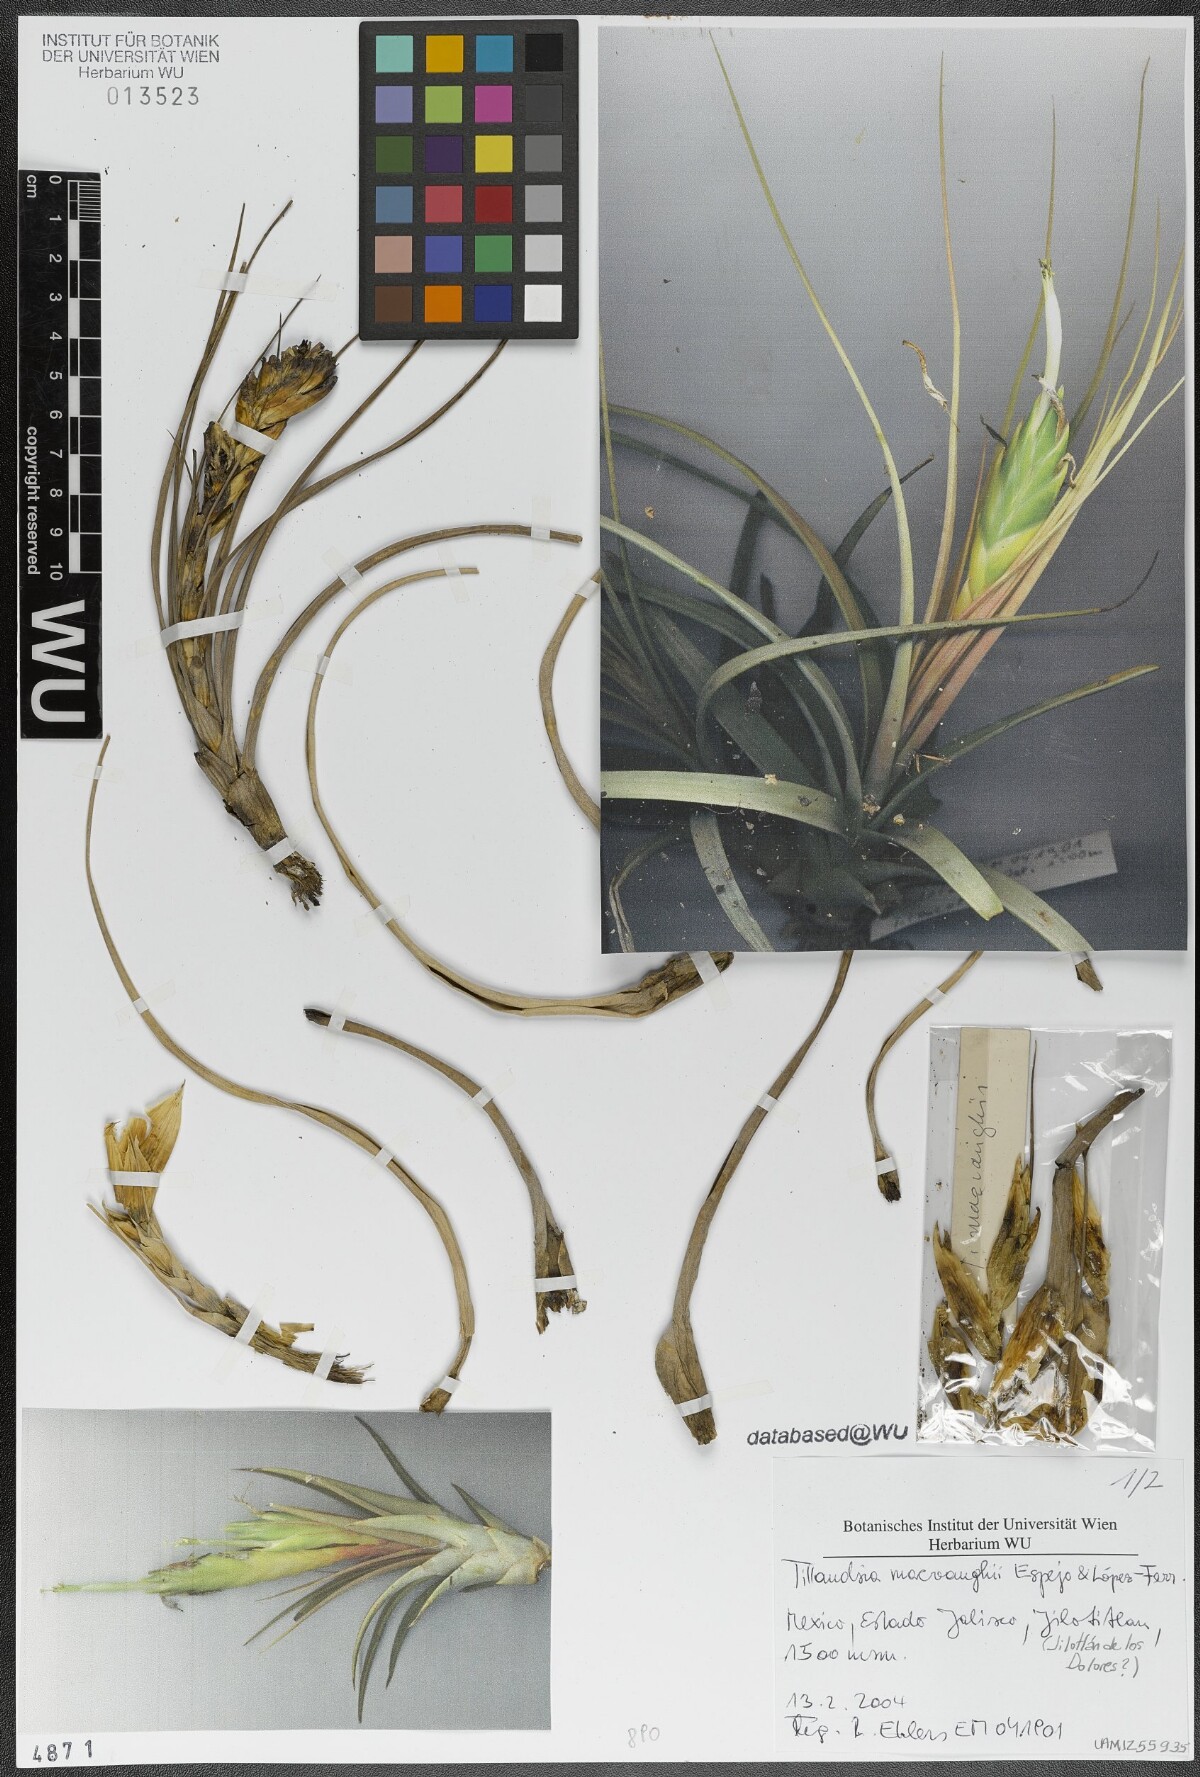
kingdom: Plantae
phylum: Tracheophyta
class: Liliopsida
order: Poales
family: Bromeliaceae
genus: Tillandsia
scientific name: Tillandsia macvaughii
